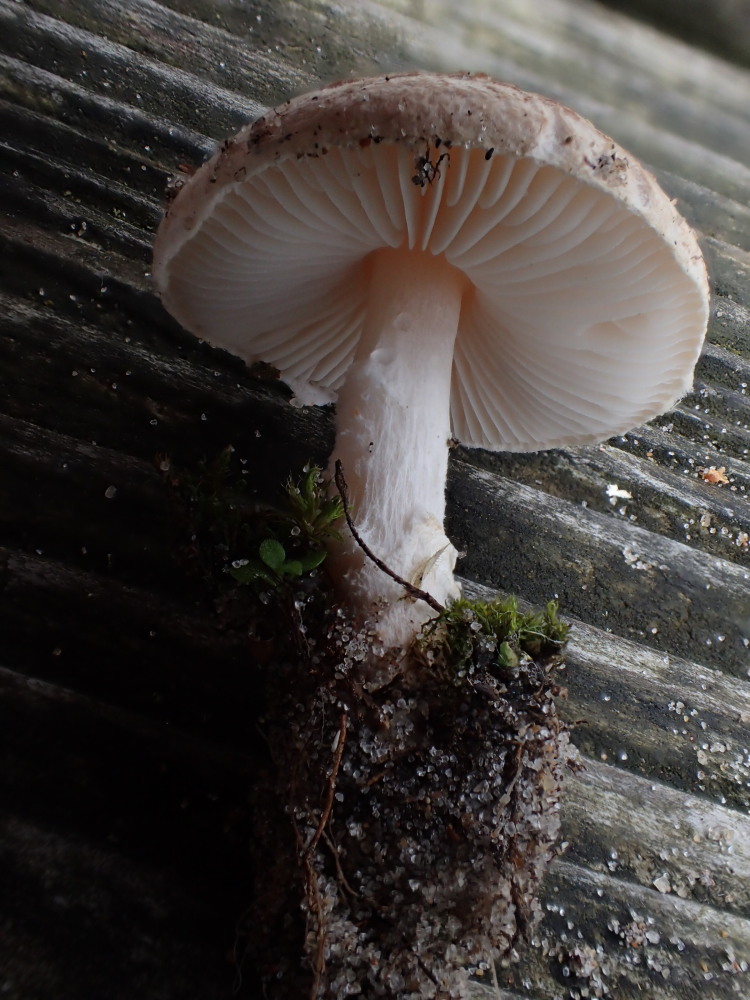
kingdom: Fungi
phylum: Basidiomycota
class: Agaricomycetes
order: Agaricales
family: Agaricaceae
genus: Lepiota
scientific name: Lepiota oreadiformis
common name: blegbrun parasolhat
